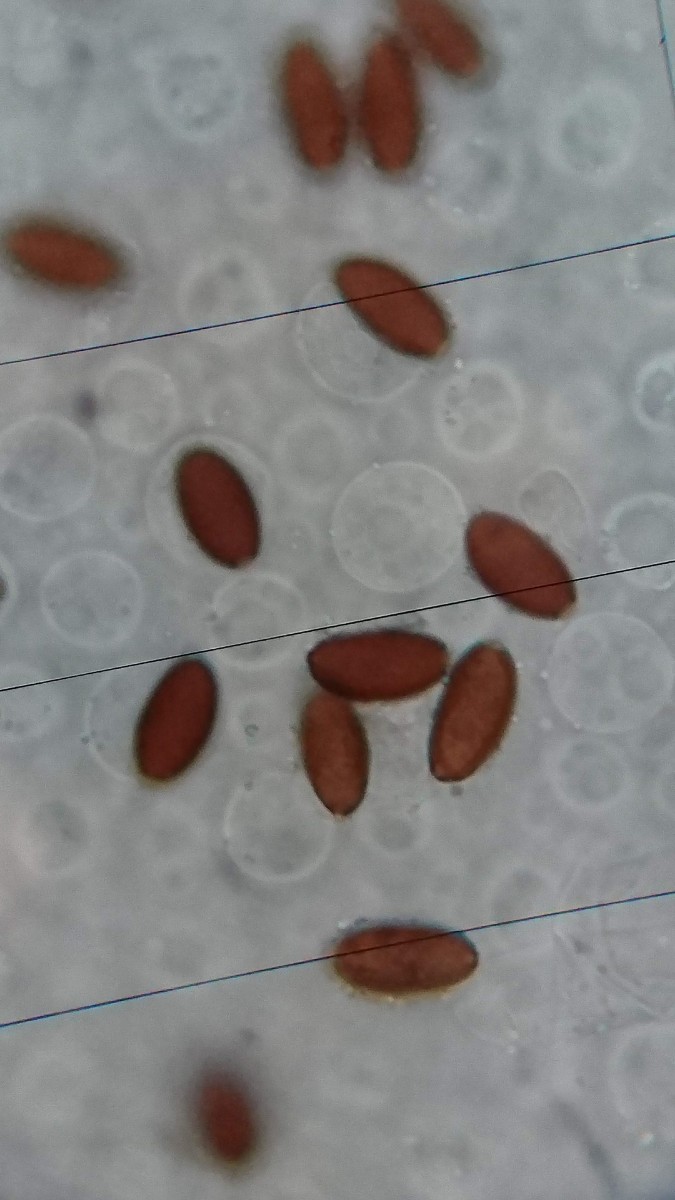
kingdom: Fungi
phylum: Basidiomycota
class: Agaricomycetes
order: Agaricales
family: Psathyrellaceae
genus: Coprinopsis
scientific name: Coprinopsis marcescibilis
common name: ruderat-blækhat
